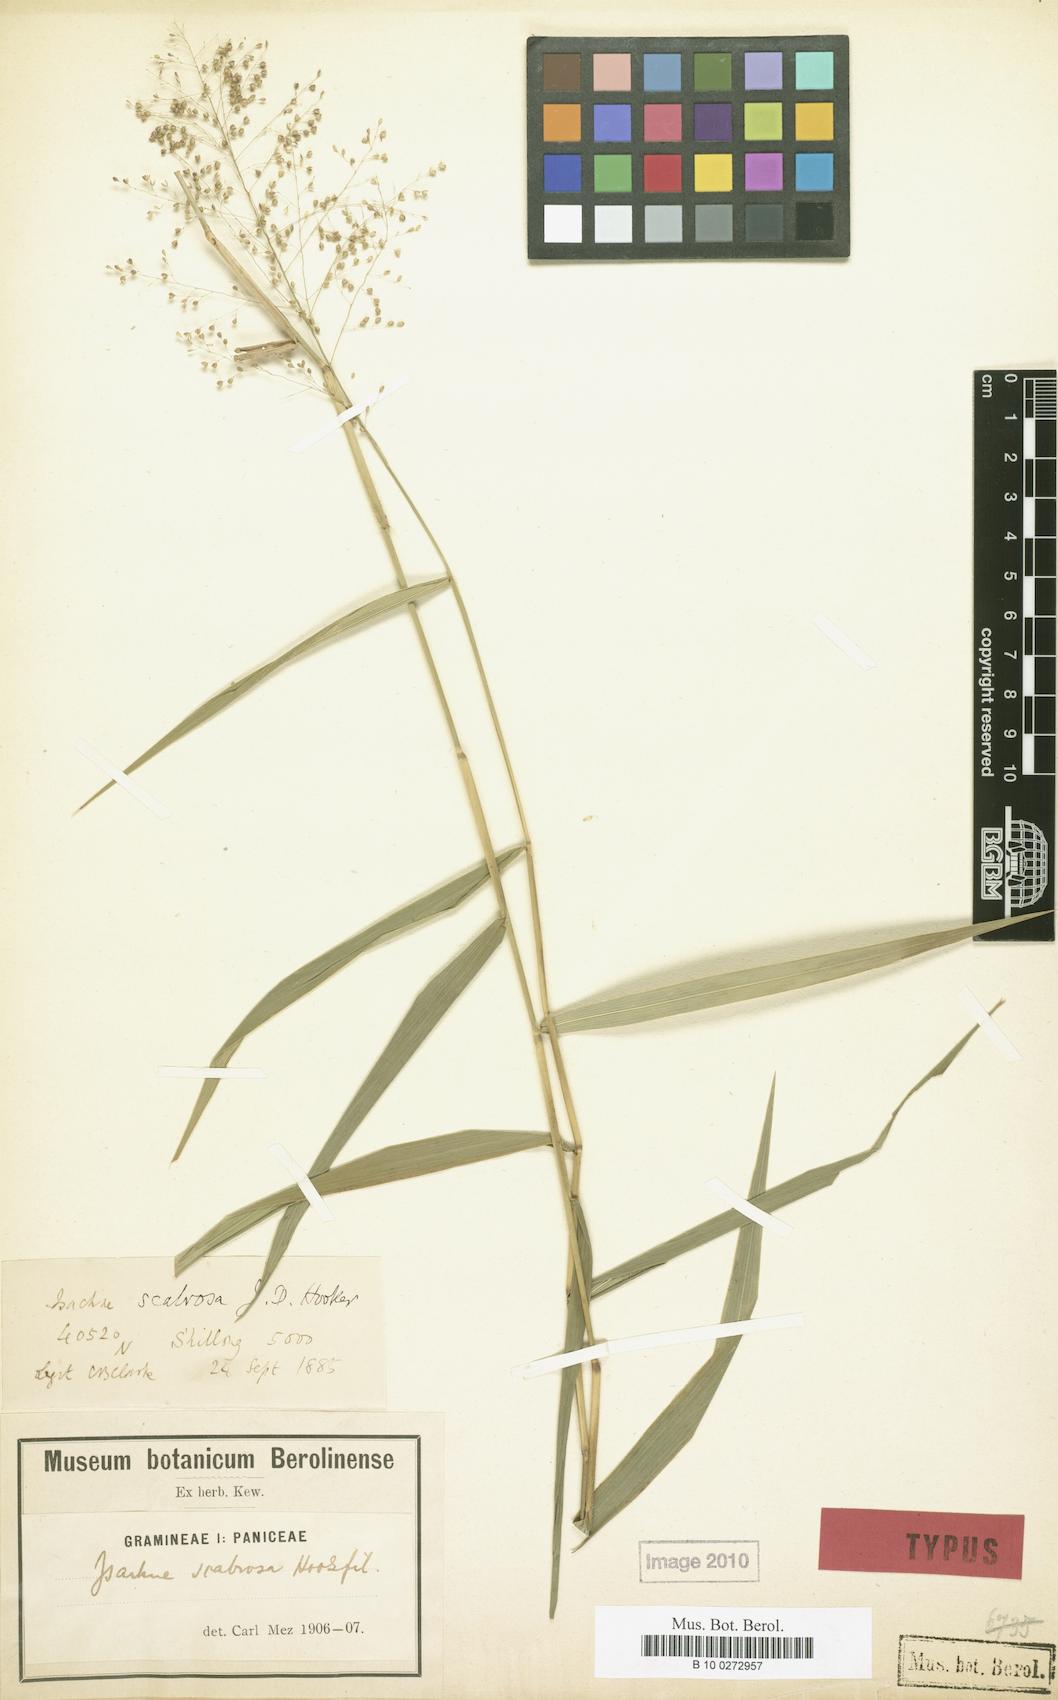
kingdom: Plantae
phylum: Tracheophyta
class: Liliopsida
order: Poales
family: Poaceae
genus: Isachne
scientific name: Isachne scabrosa
